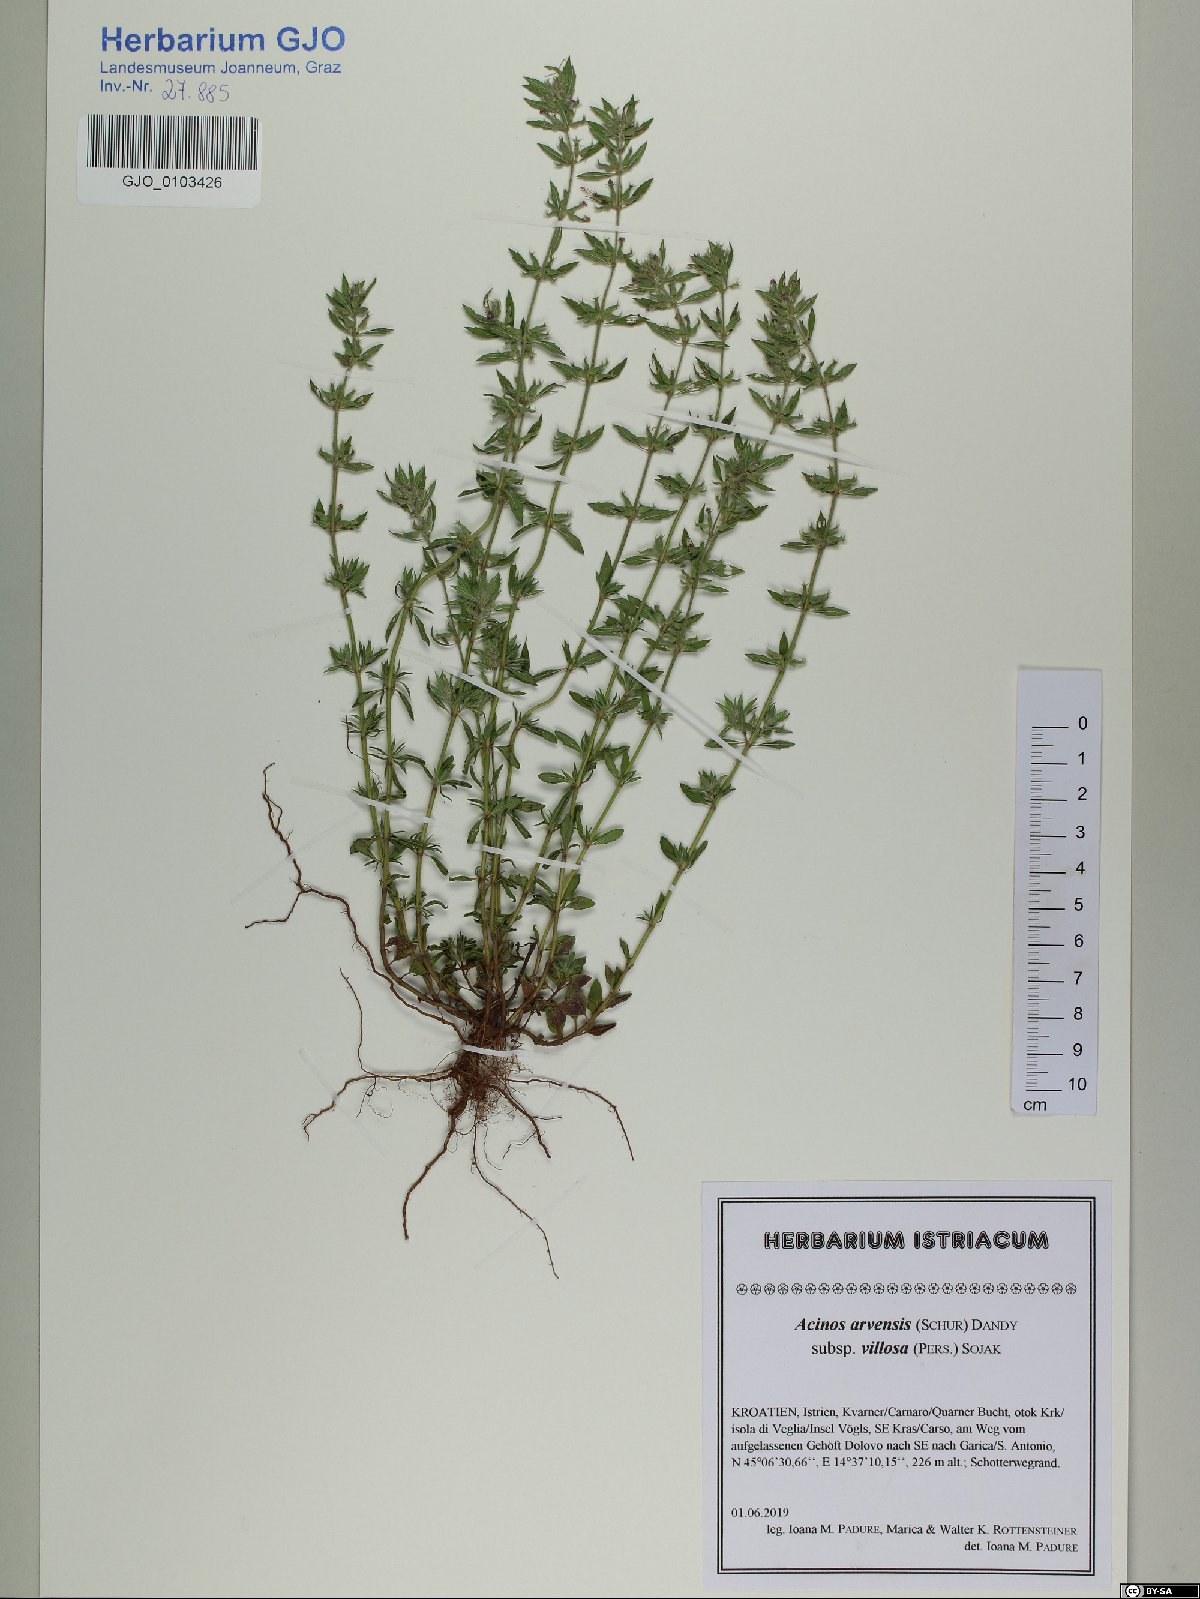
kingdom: Plantae
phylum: Tracheophyta
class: Magnoliopsida
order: Lamiales
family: Lamiaceae
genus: Clinopodium
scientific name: Clinopodium acinos
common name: Basil thyme
